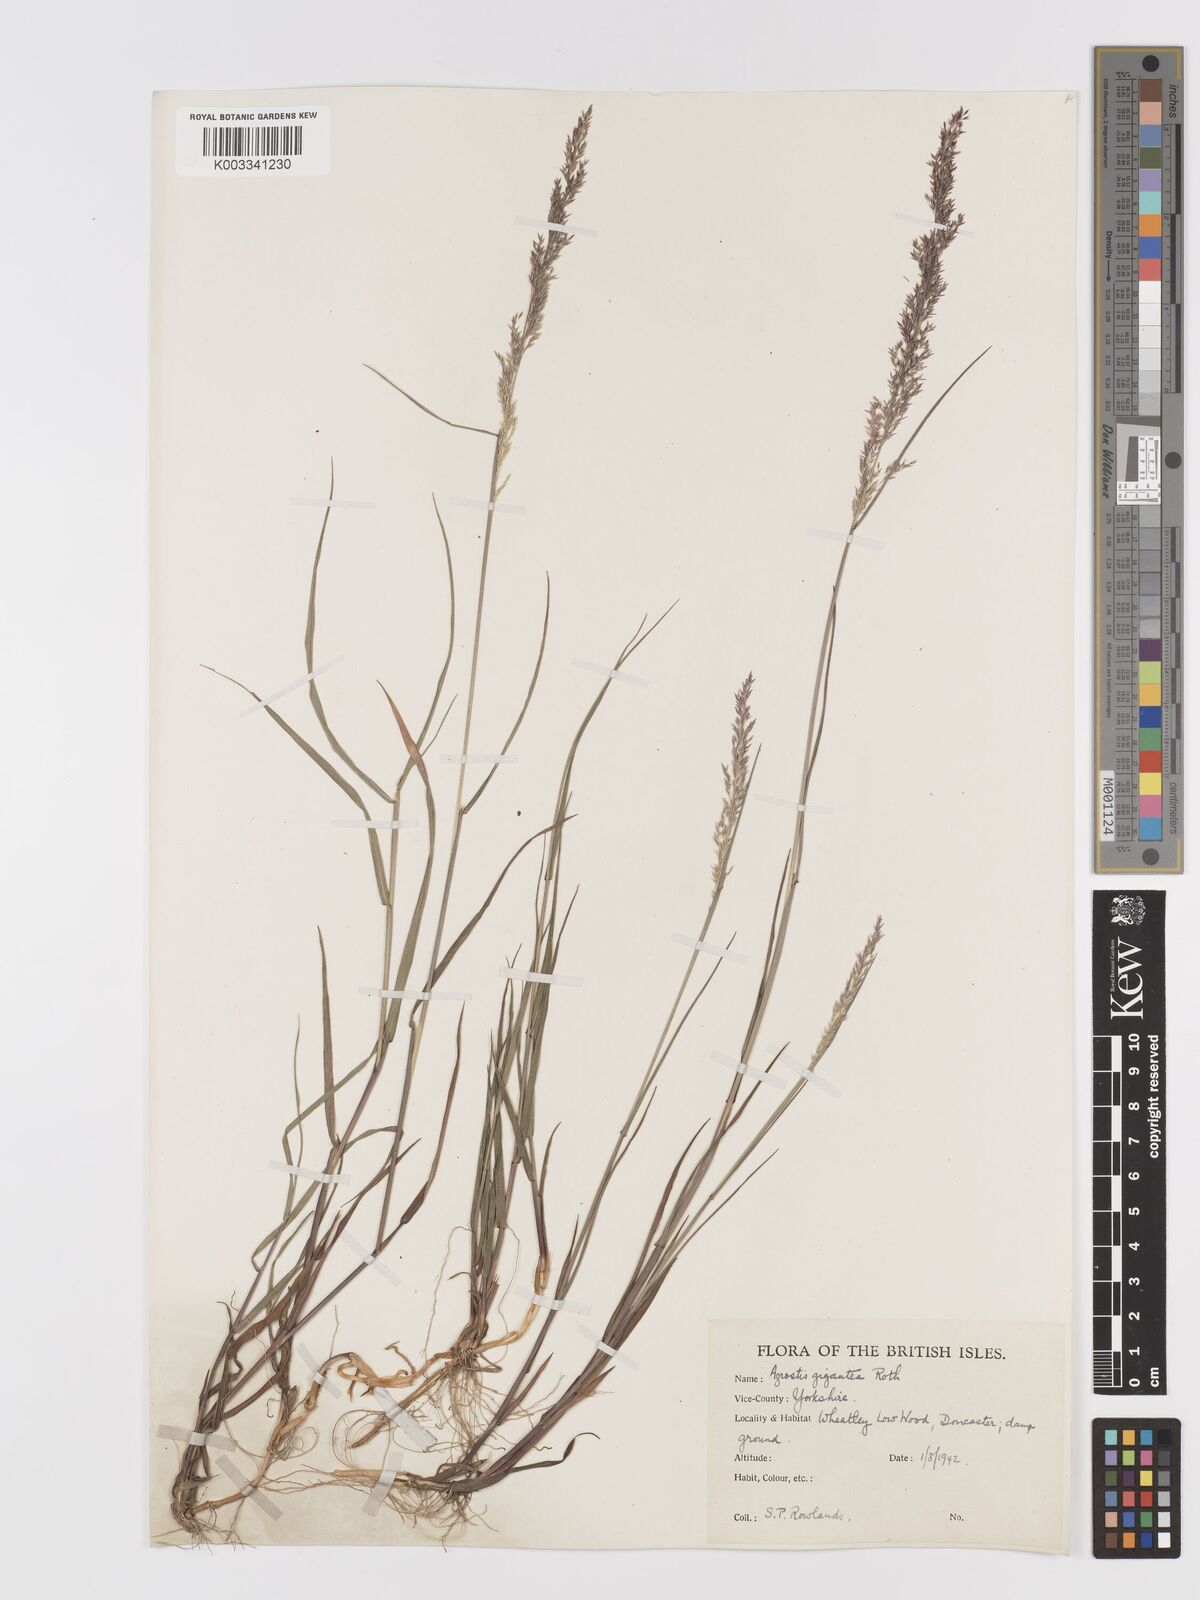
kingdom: Plantae
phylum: Tracheophyta
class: Liliopsida
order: Poales
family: Poaceae
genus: Agrostis
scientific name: Agrostis gigantea
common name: Black bent
